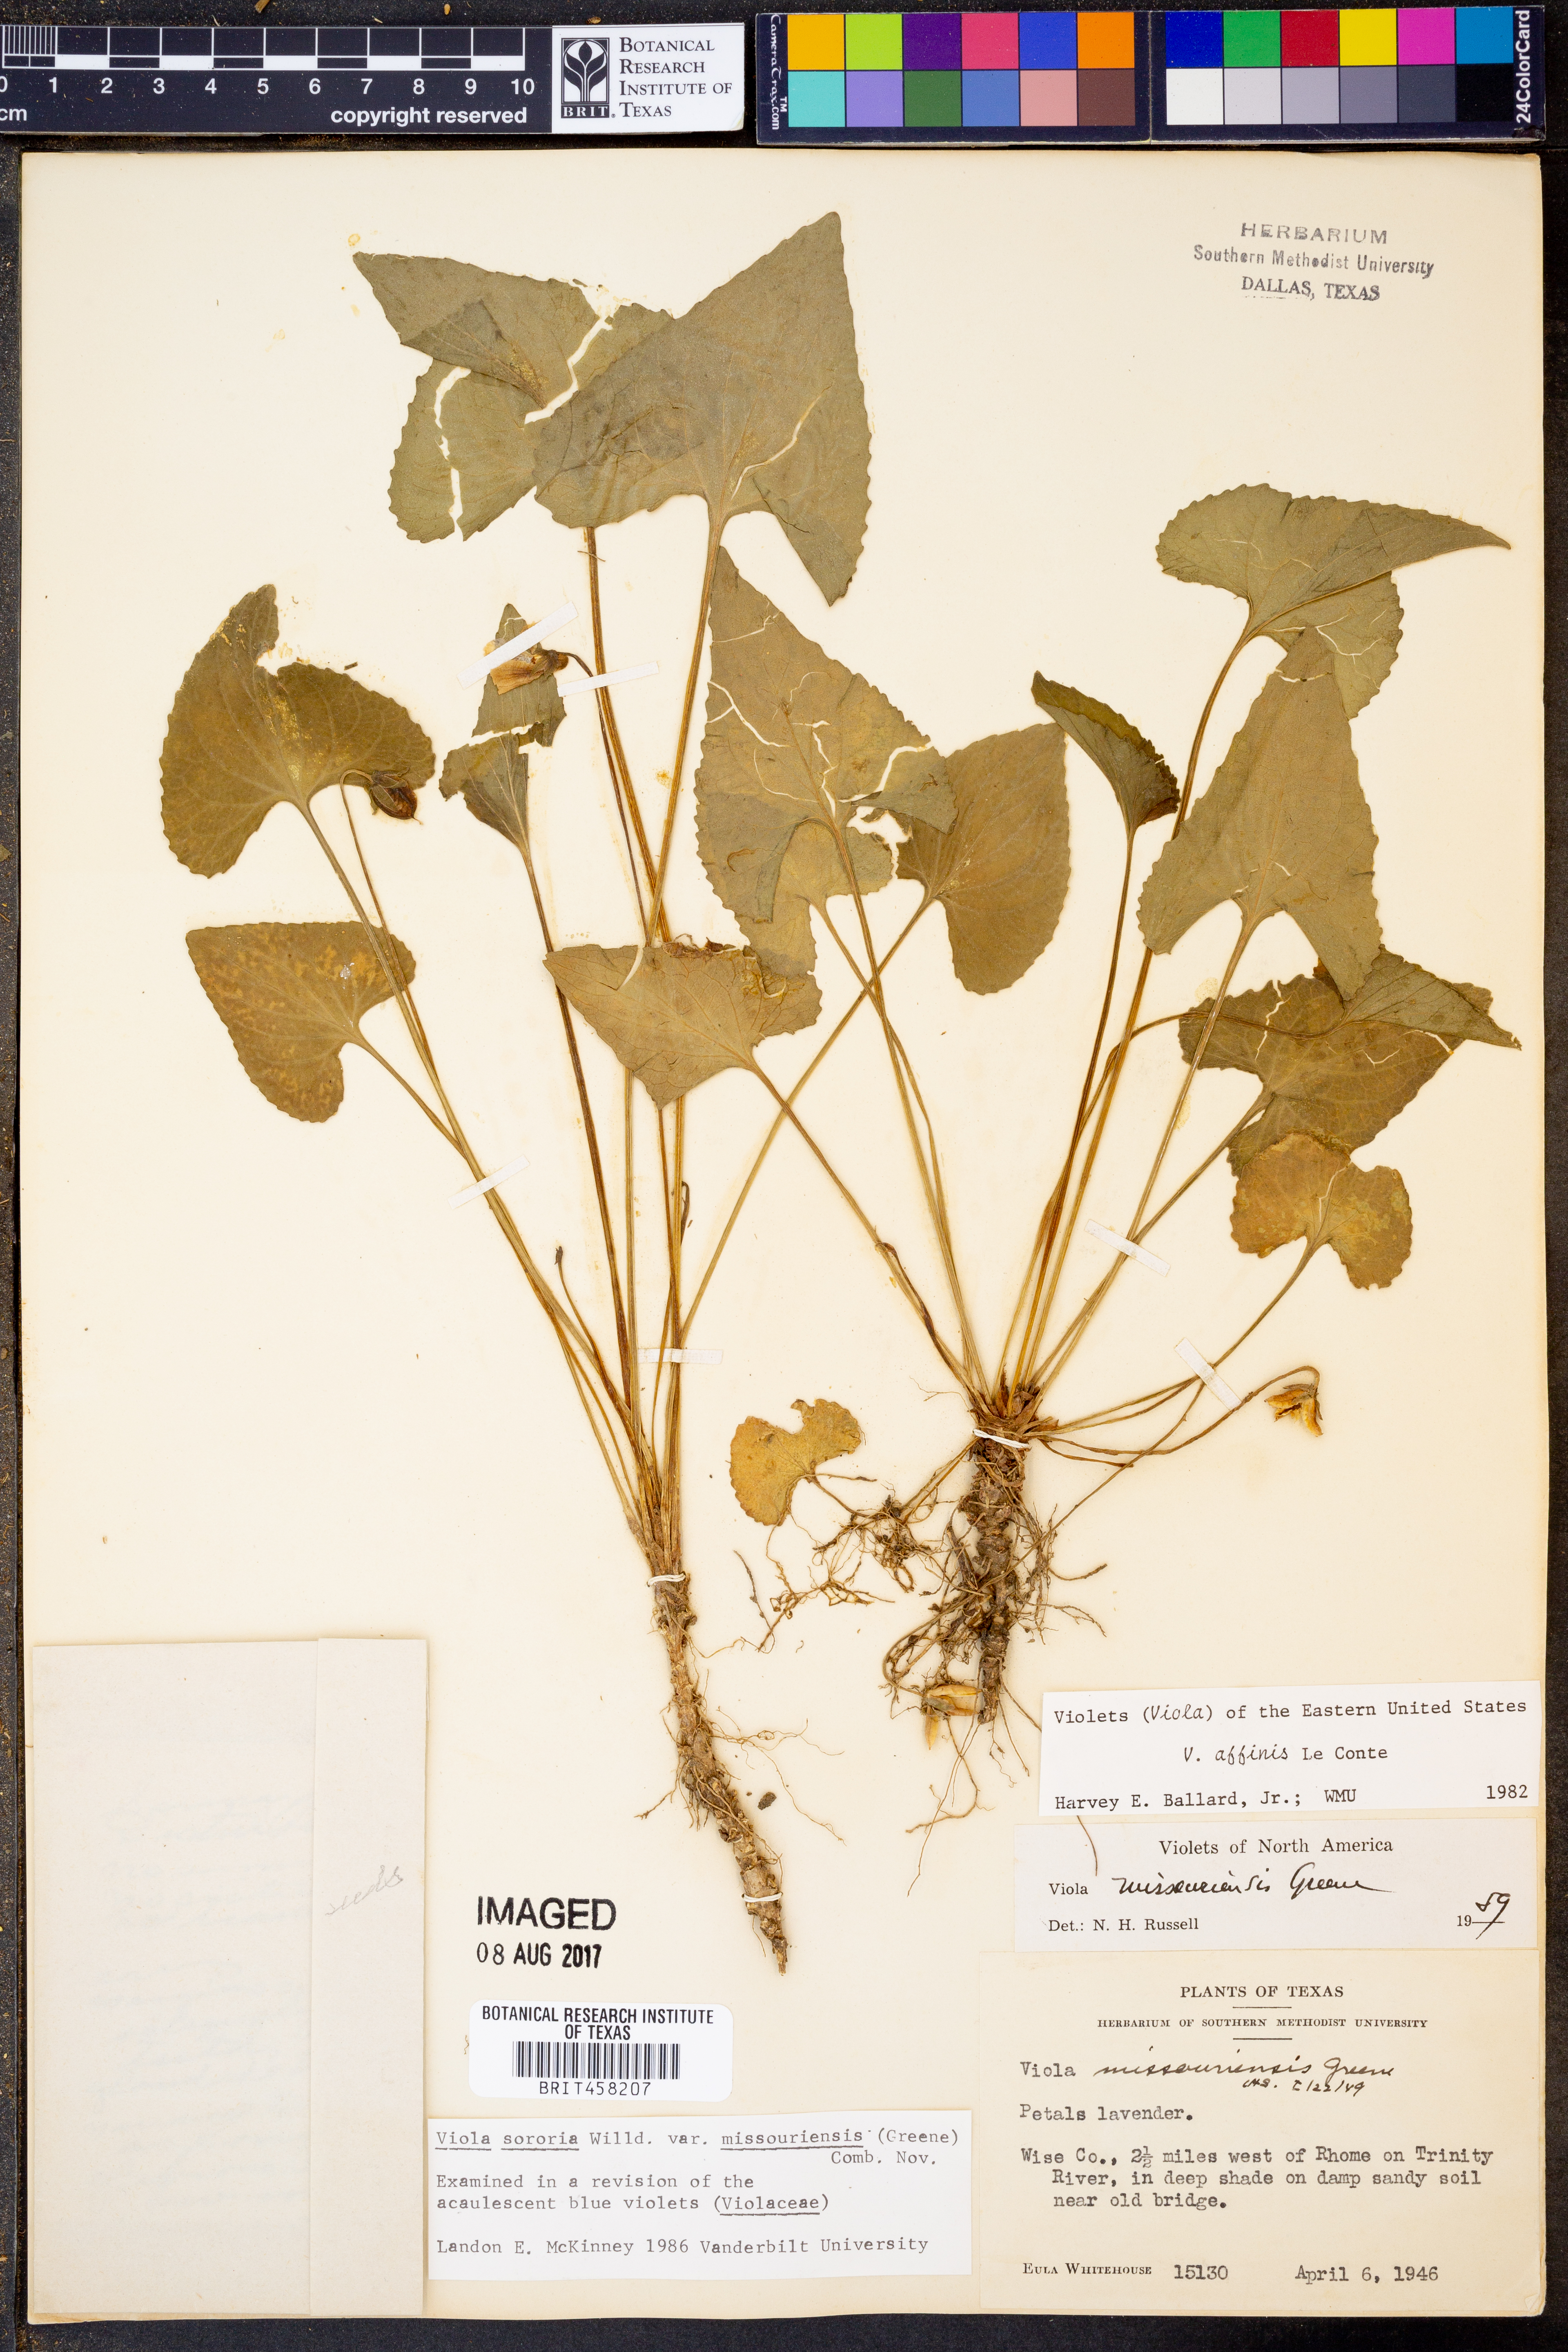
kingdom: Plantae
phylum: Tracheophyta
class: Magnoliopsida
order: Malpighiales
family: Violaceae
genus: Viola
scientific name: Viola missouriensis
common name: Missouri violet
